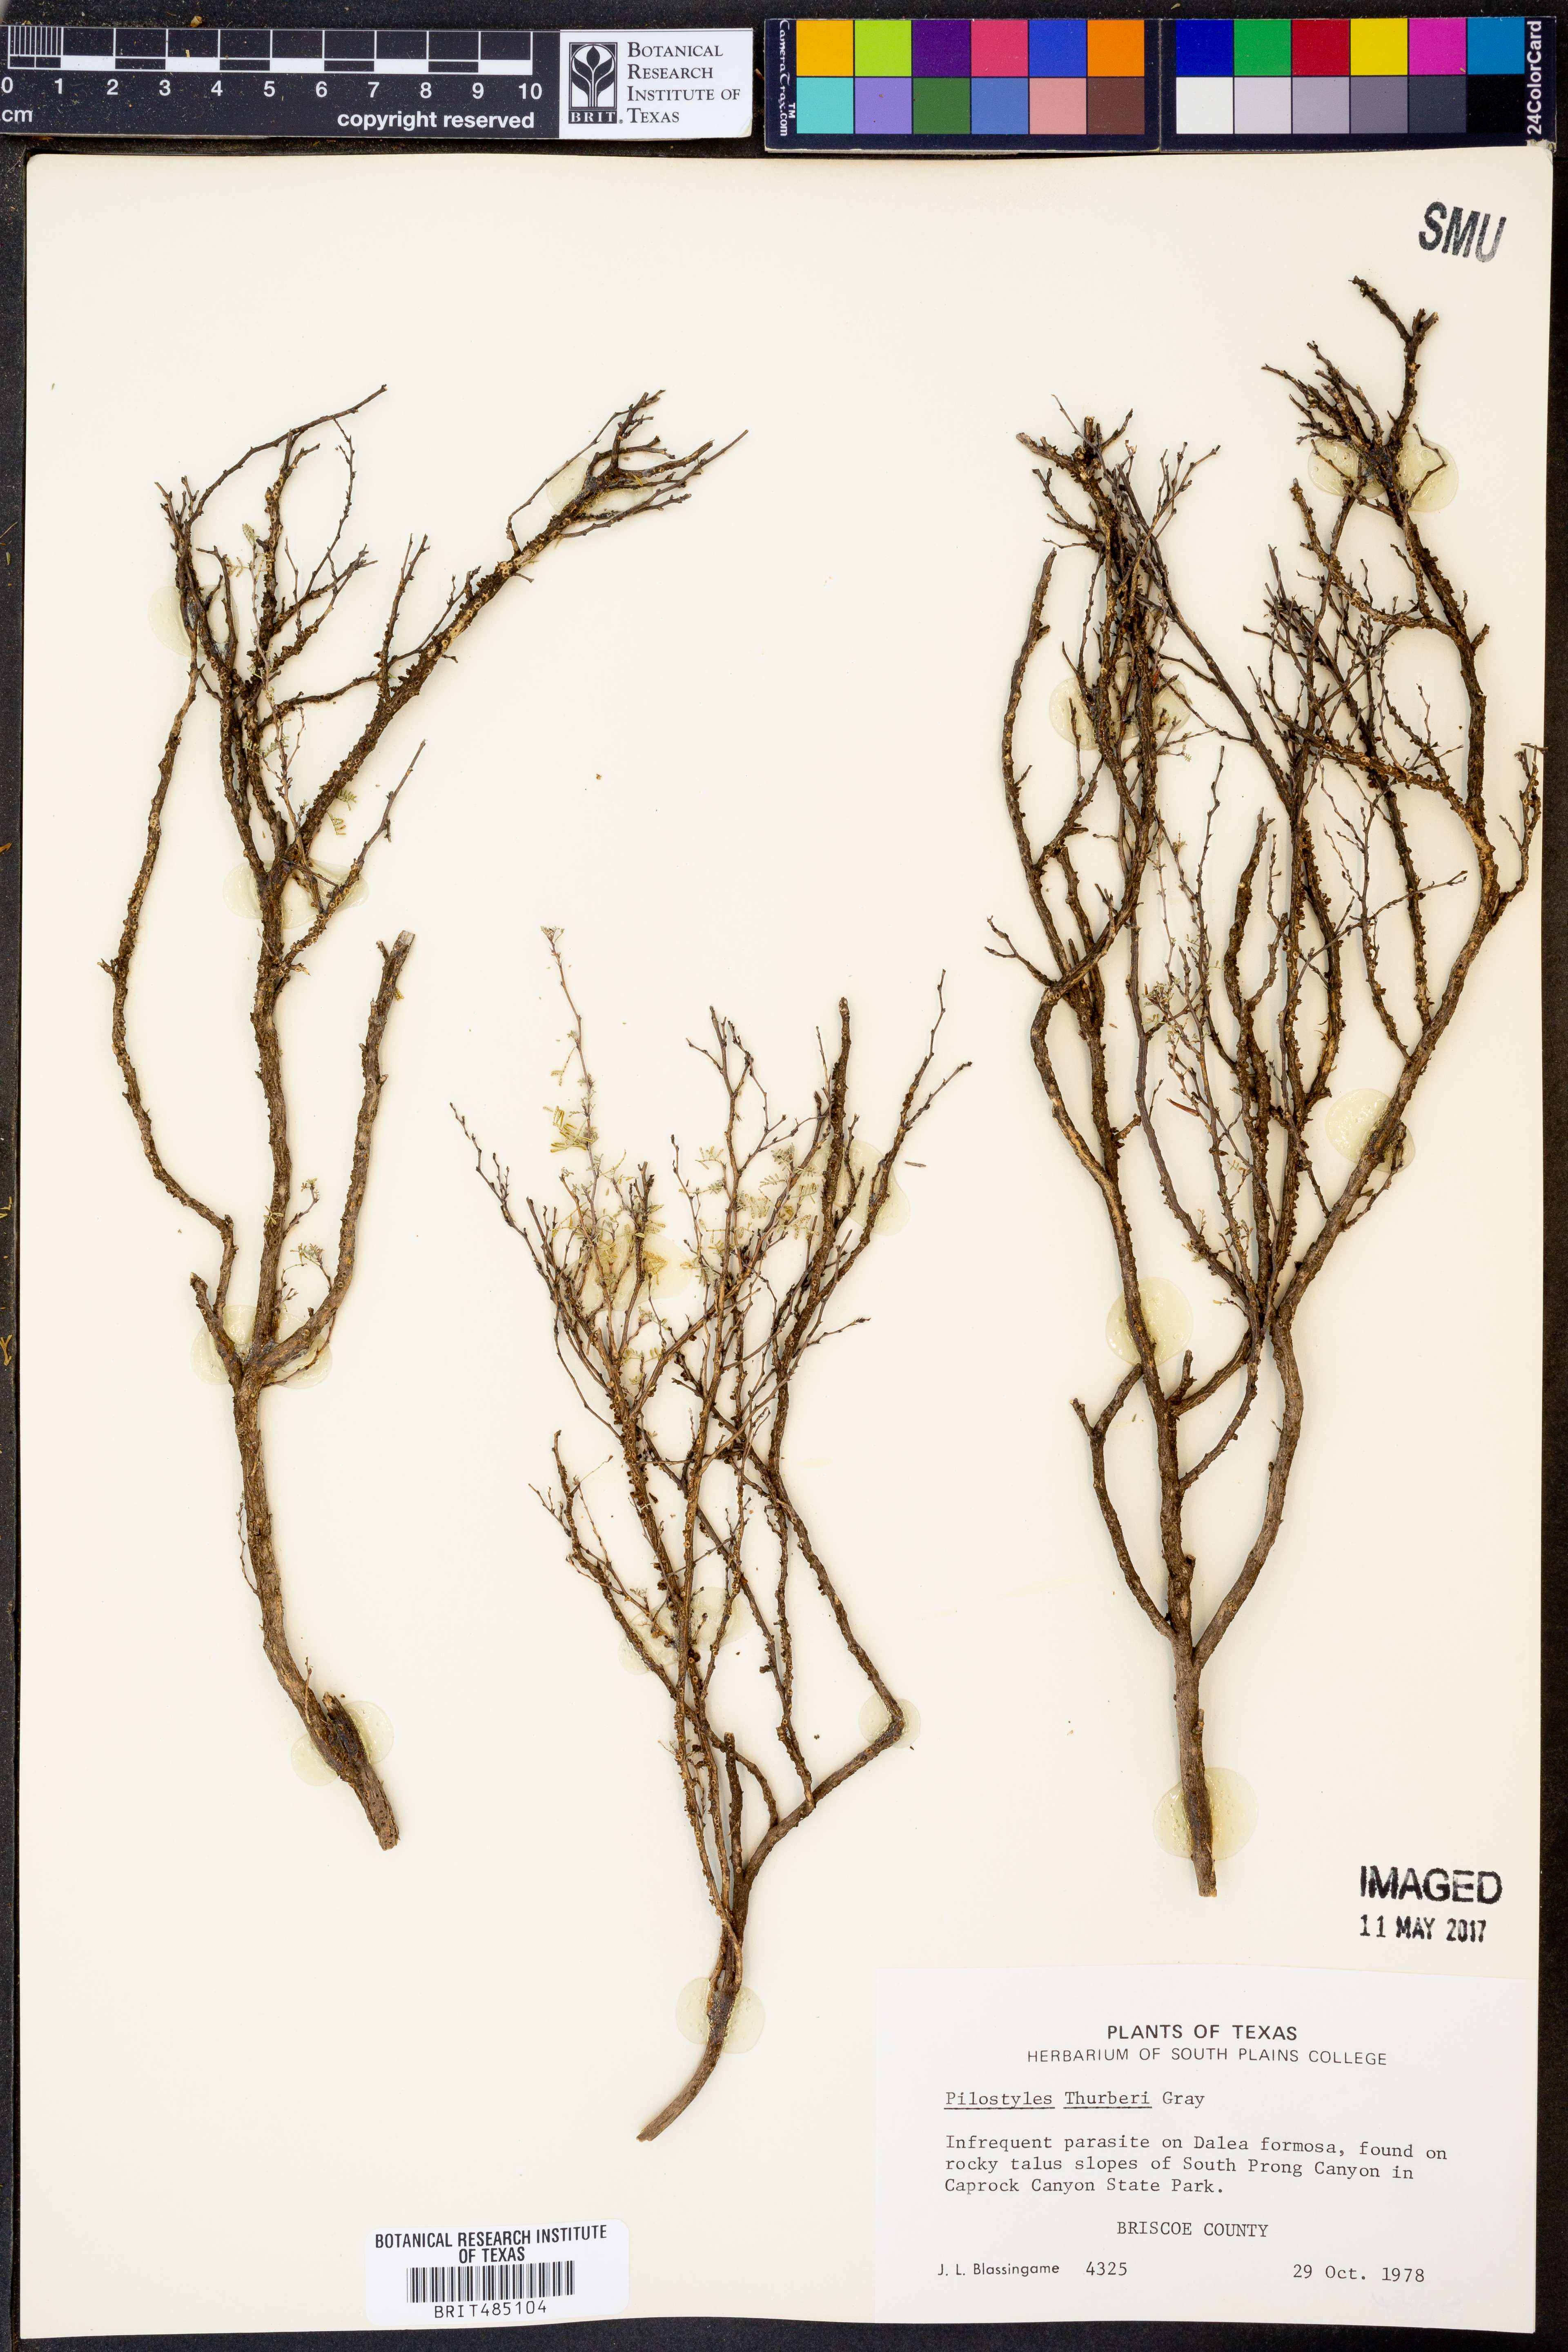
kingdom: Plantae
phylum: Tracheophyta
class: Magnoliopsida
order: Cucurbitales
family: Apodanthaceae
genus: Pilostyles
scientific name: Pilostyles thurberi
